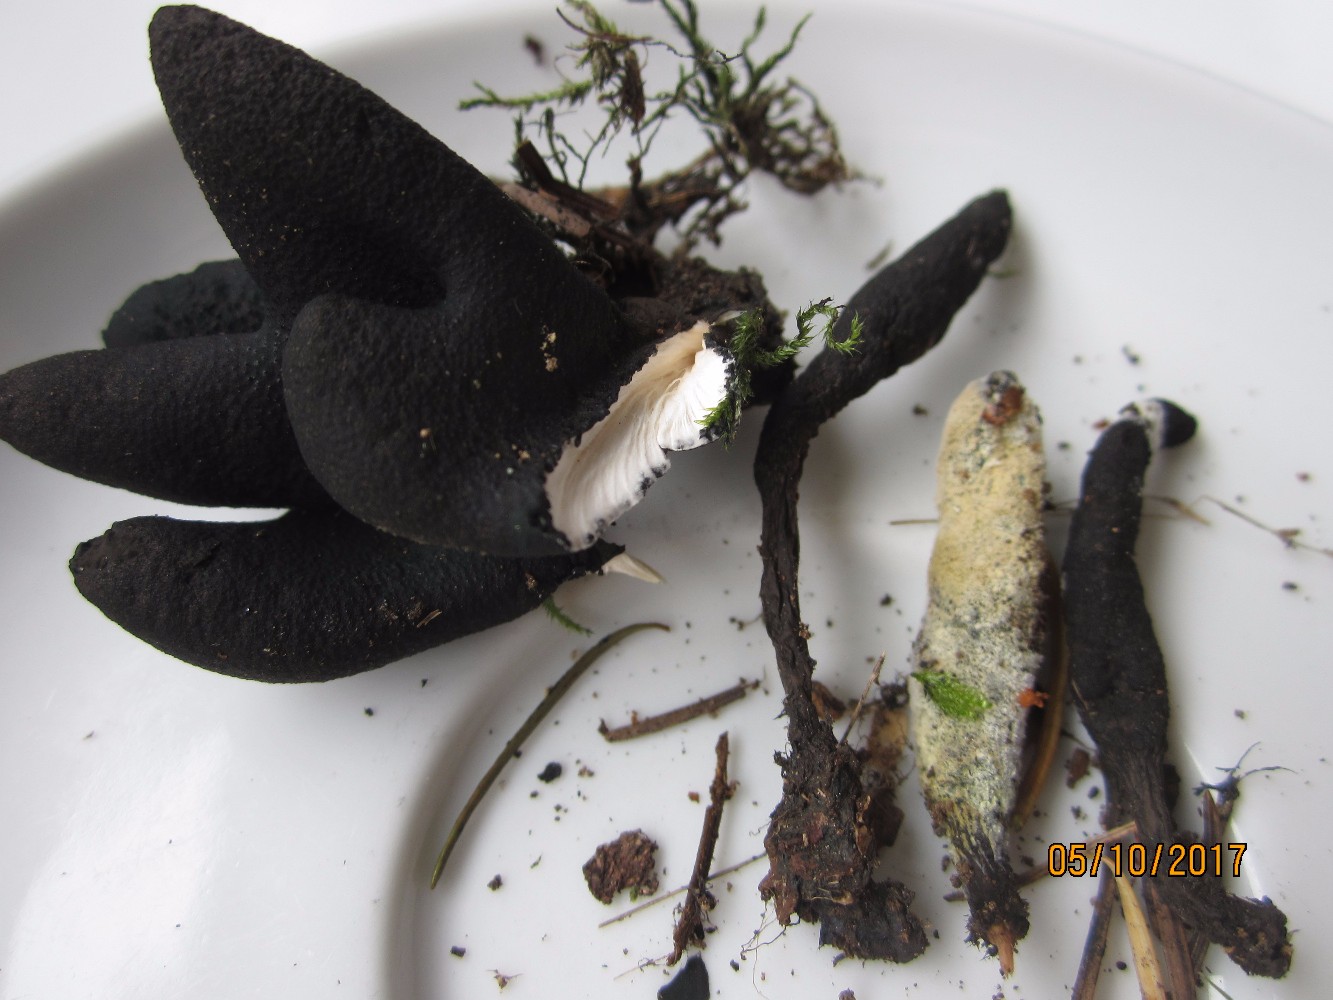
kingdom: Fungi
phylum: Ascomycota
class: Sordariomycetes
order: Xylariales
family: Xylariaceae
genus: Xylaria
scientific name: Xylaria polymorpha
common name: kølle-stødsvamp
